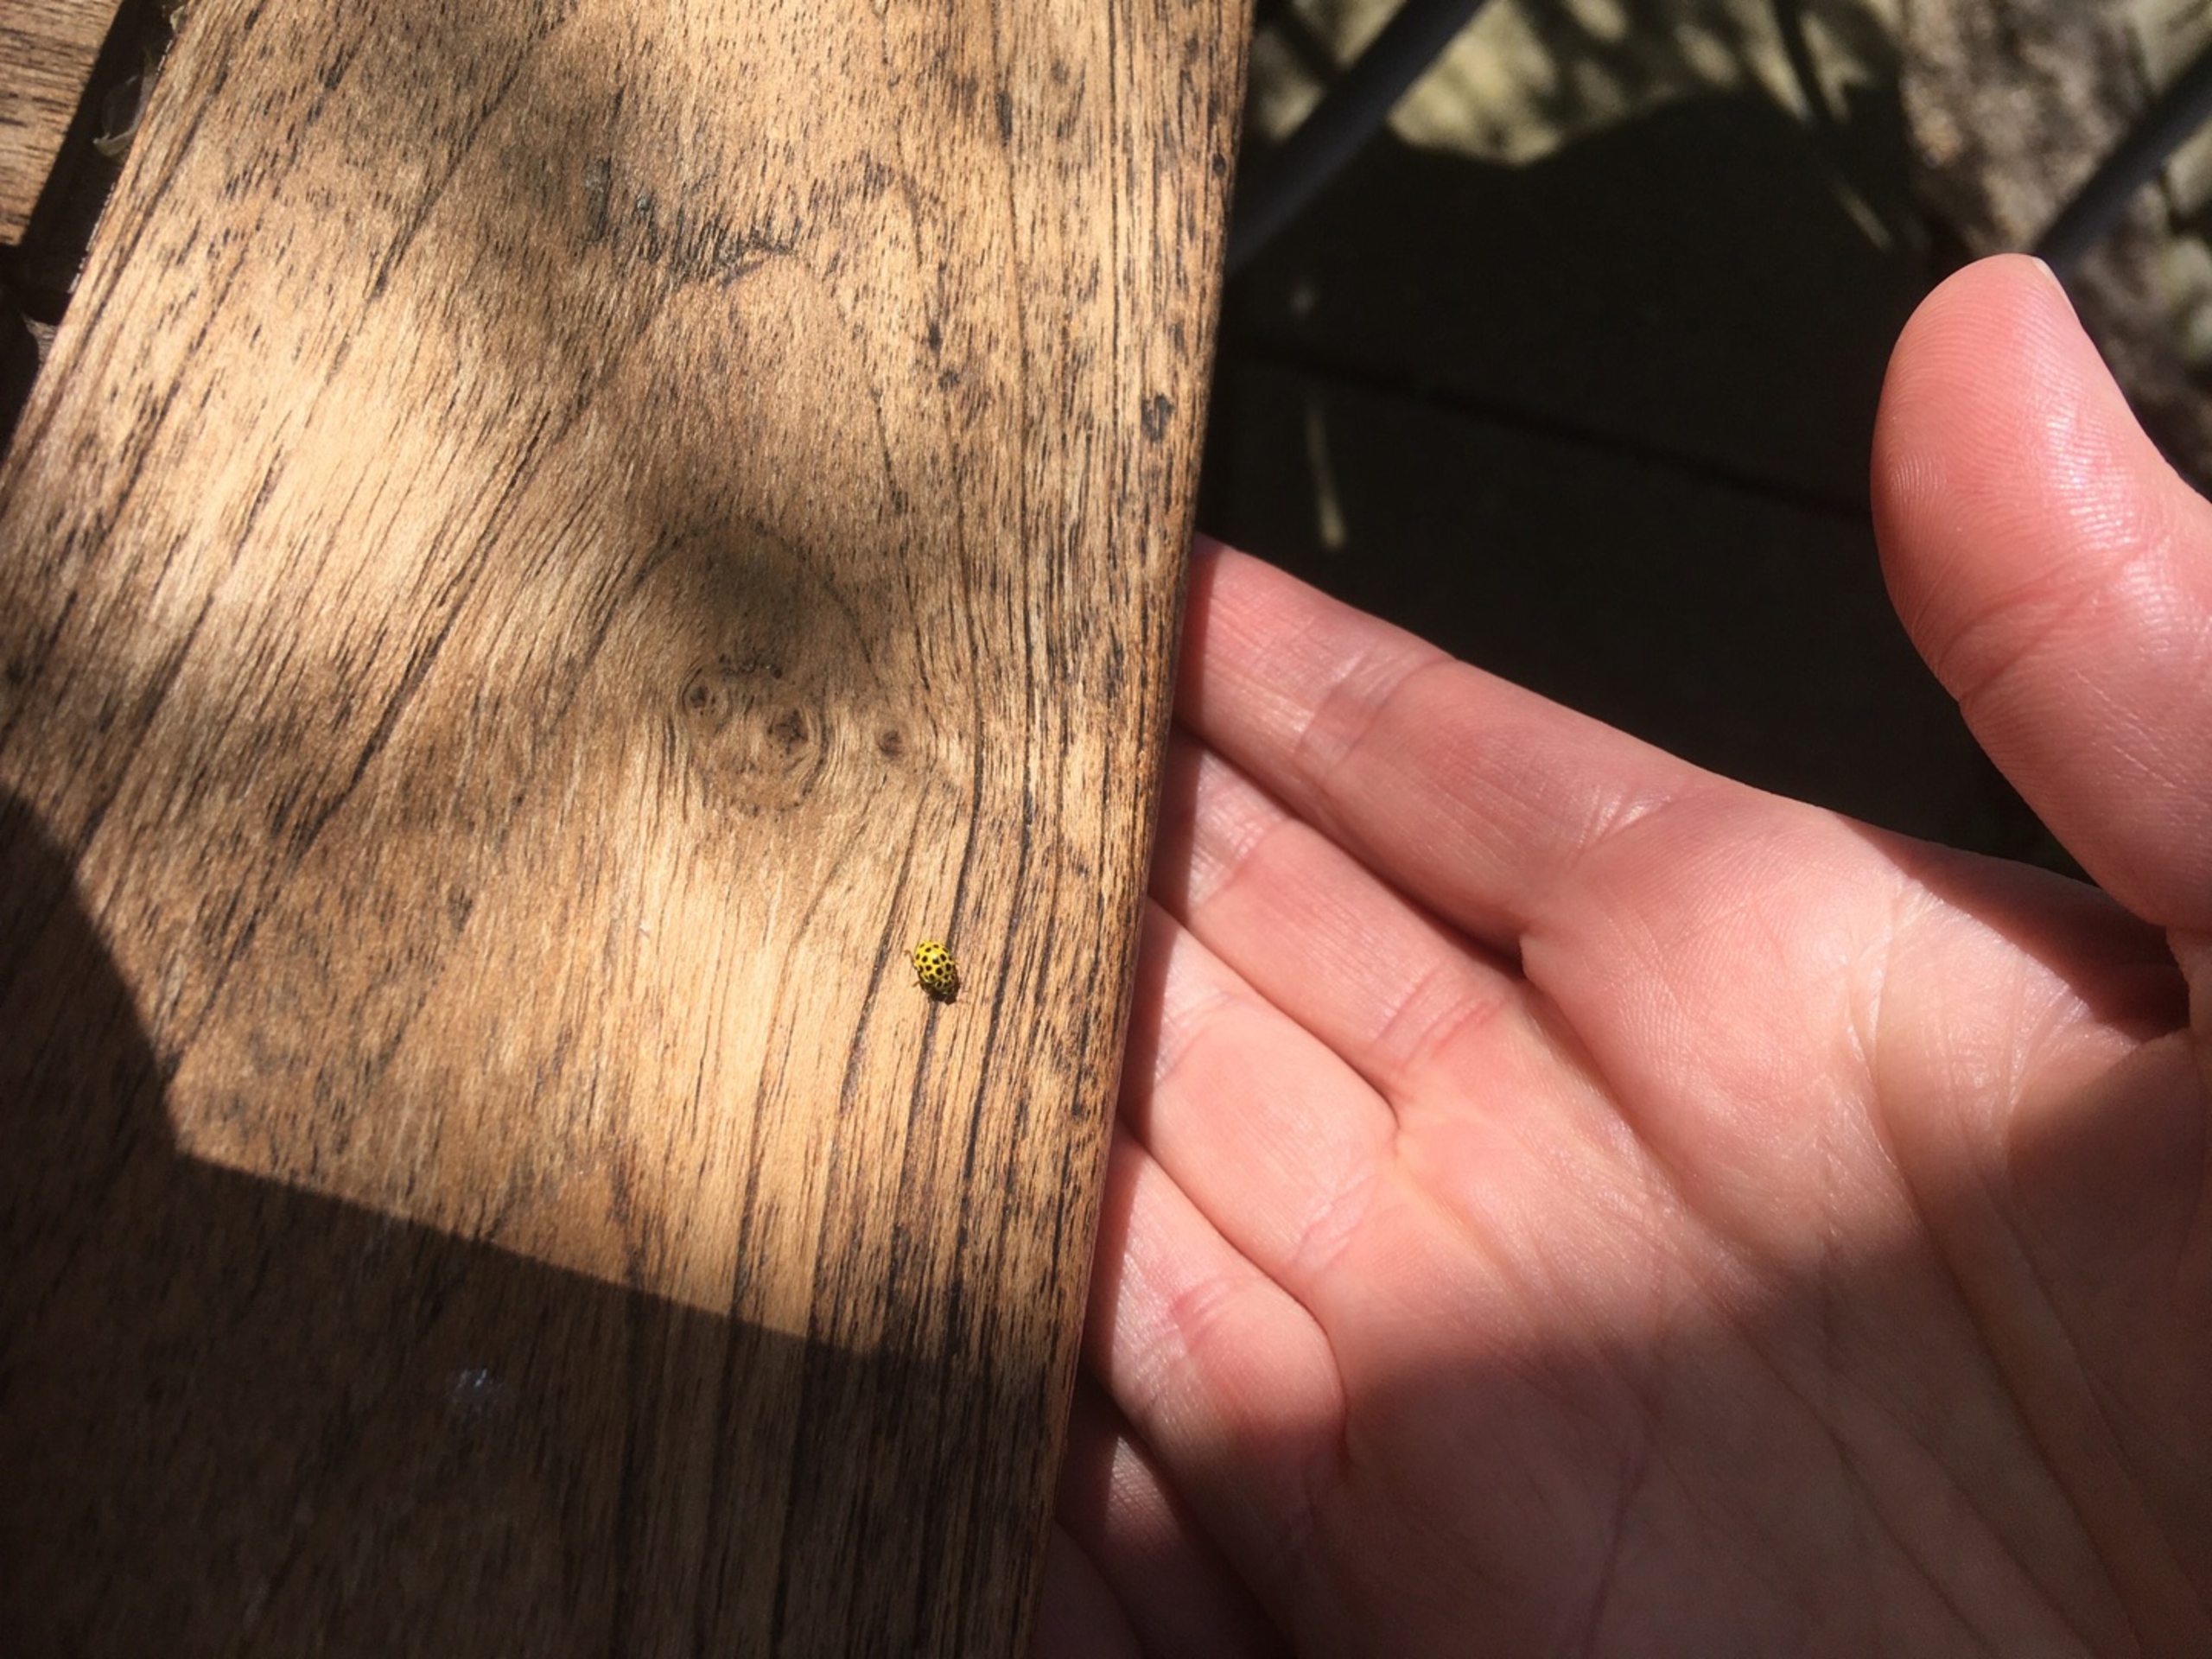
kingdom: Animalia
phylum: Arthropoda
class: Insecta
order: Coleoptera
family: Coccinellidae
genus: Psyllobora
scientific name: Psyllobora vigintiduopunctata
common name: Toogtyveplettet mariehøne
